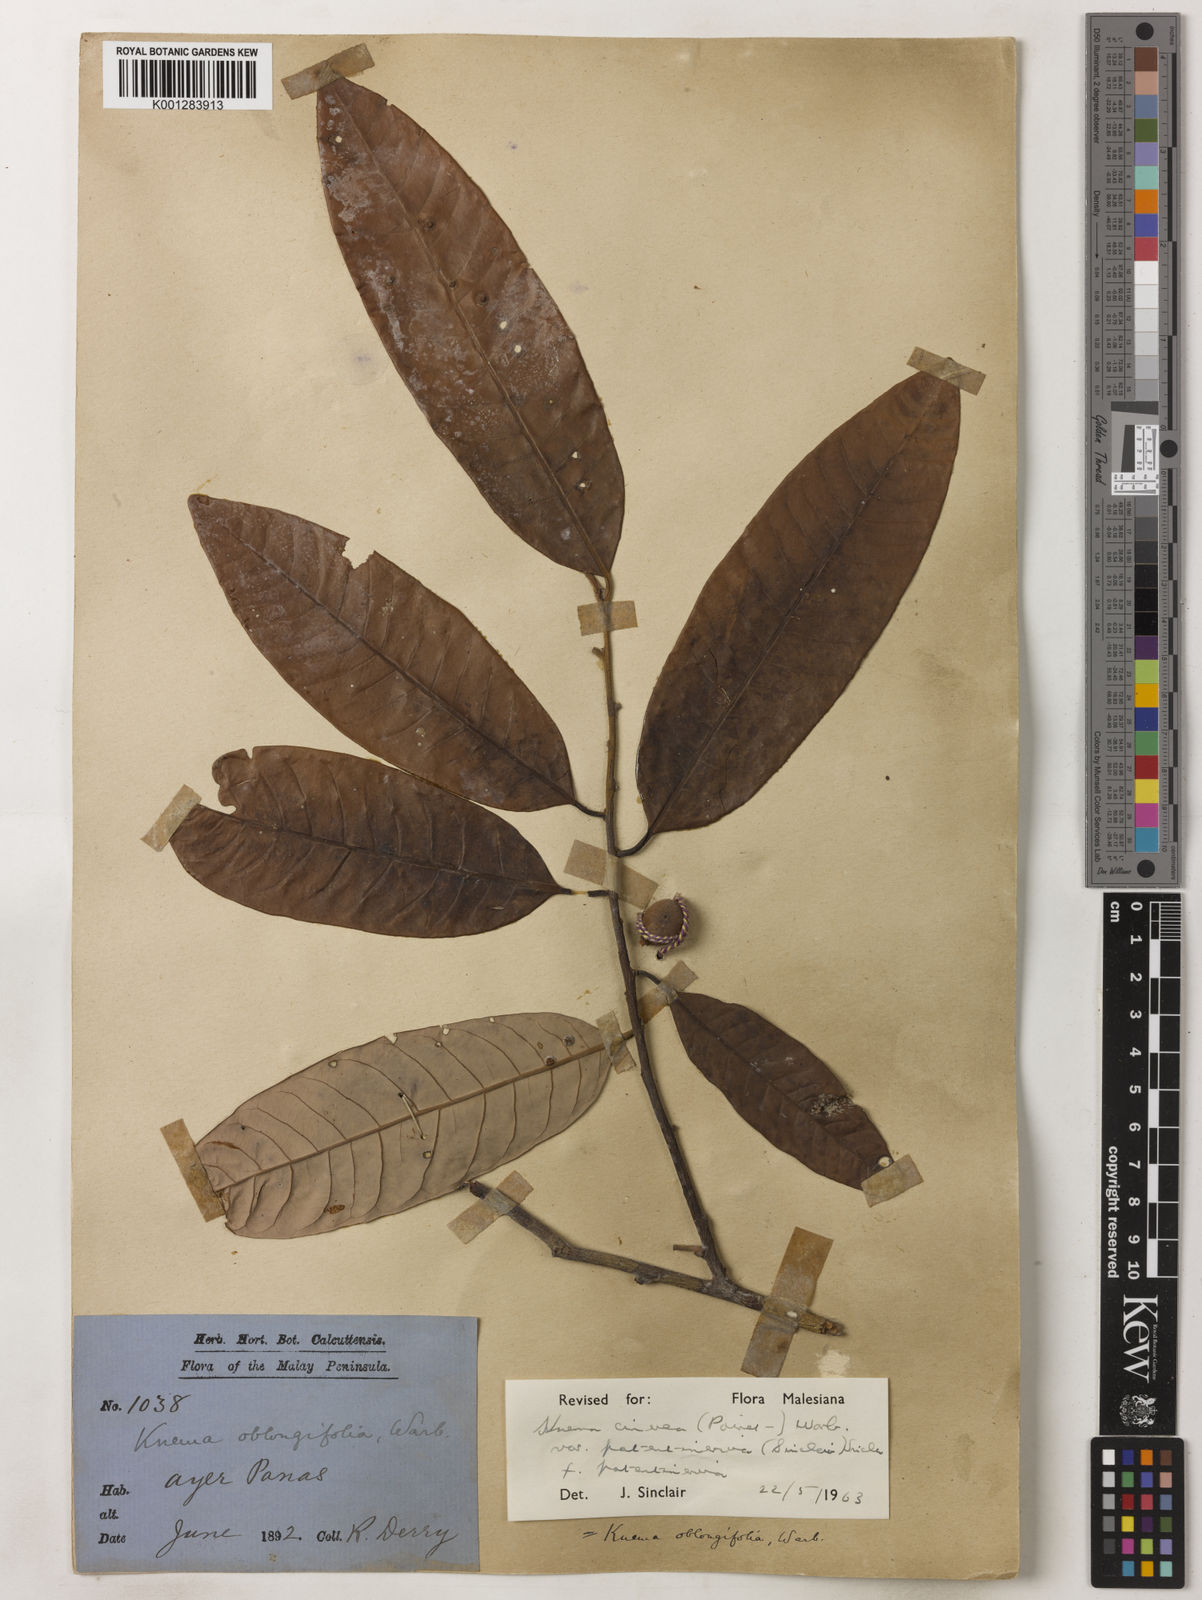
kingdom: Plantae
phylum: Tracheophyta
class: Magnoliopsida
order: Magnoliales
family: Myristicaceae
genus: Knema
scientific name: Knema
